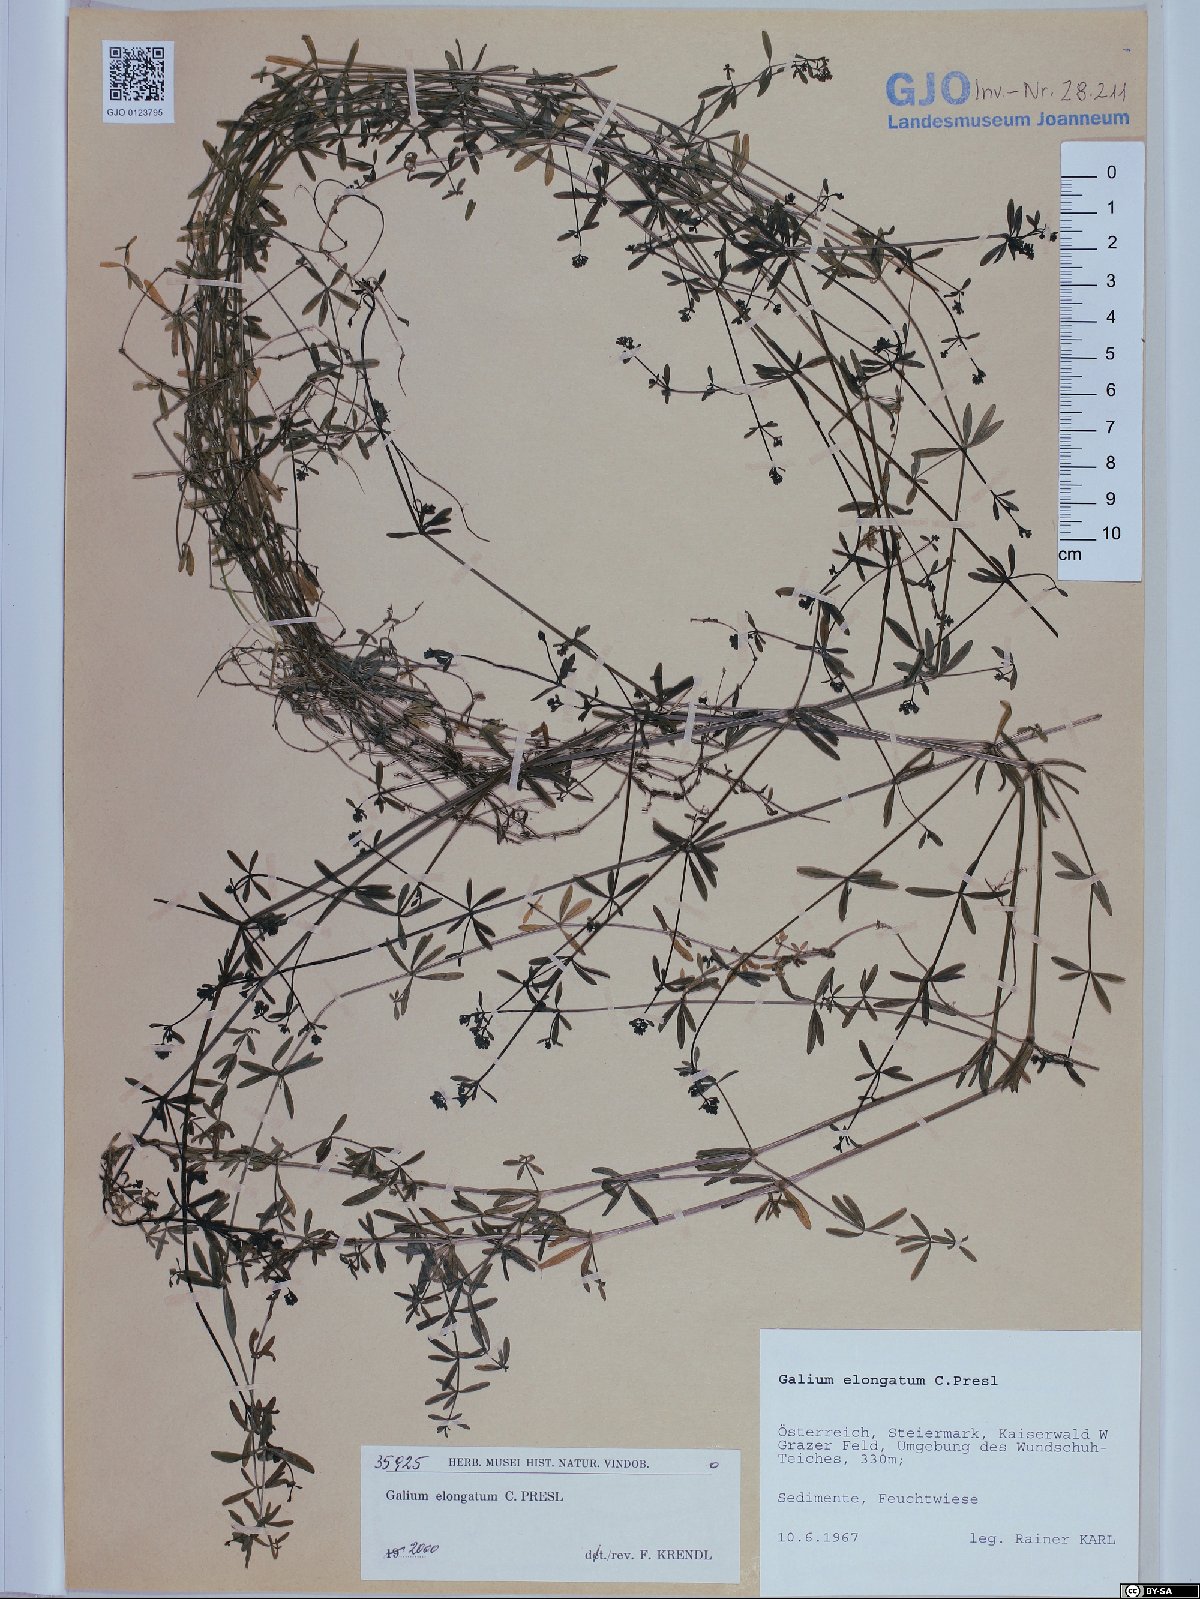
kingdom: Plantae
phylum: Tracheophyta
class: Magnoliopsida
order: Gentianales
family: Rubiaceae
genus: Galium
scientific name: Galium elongatum
